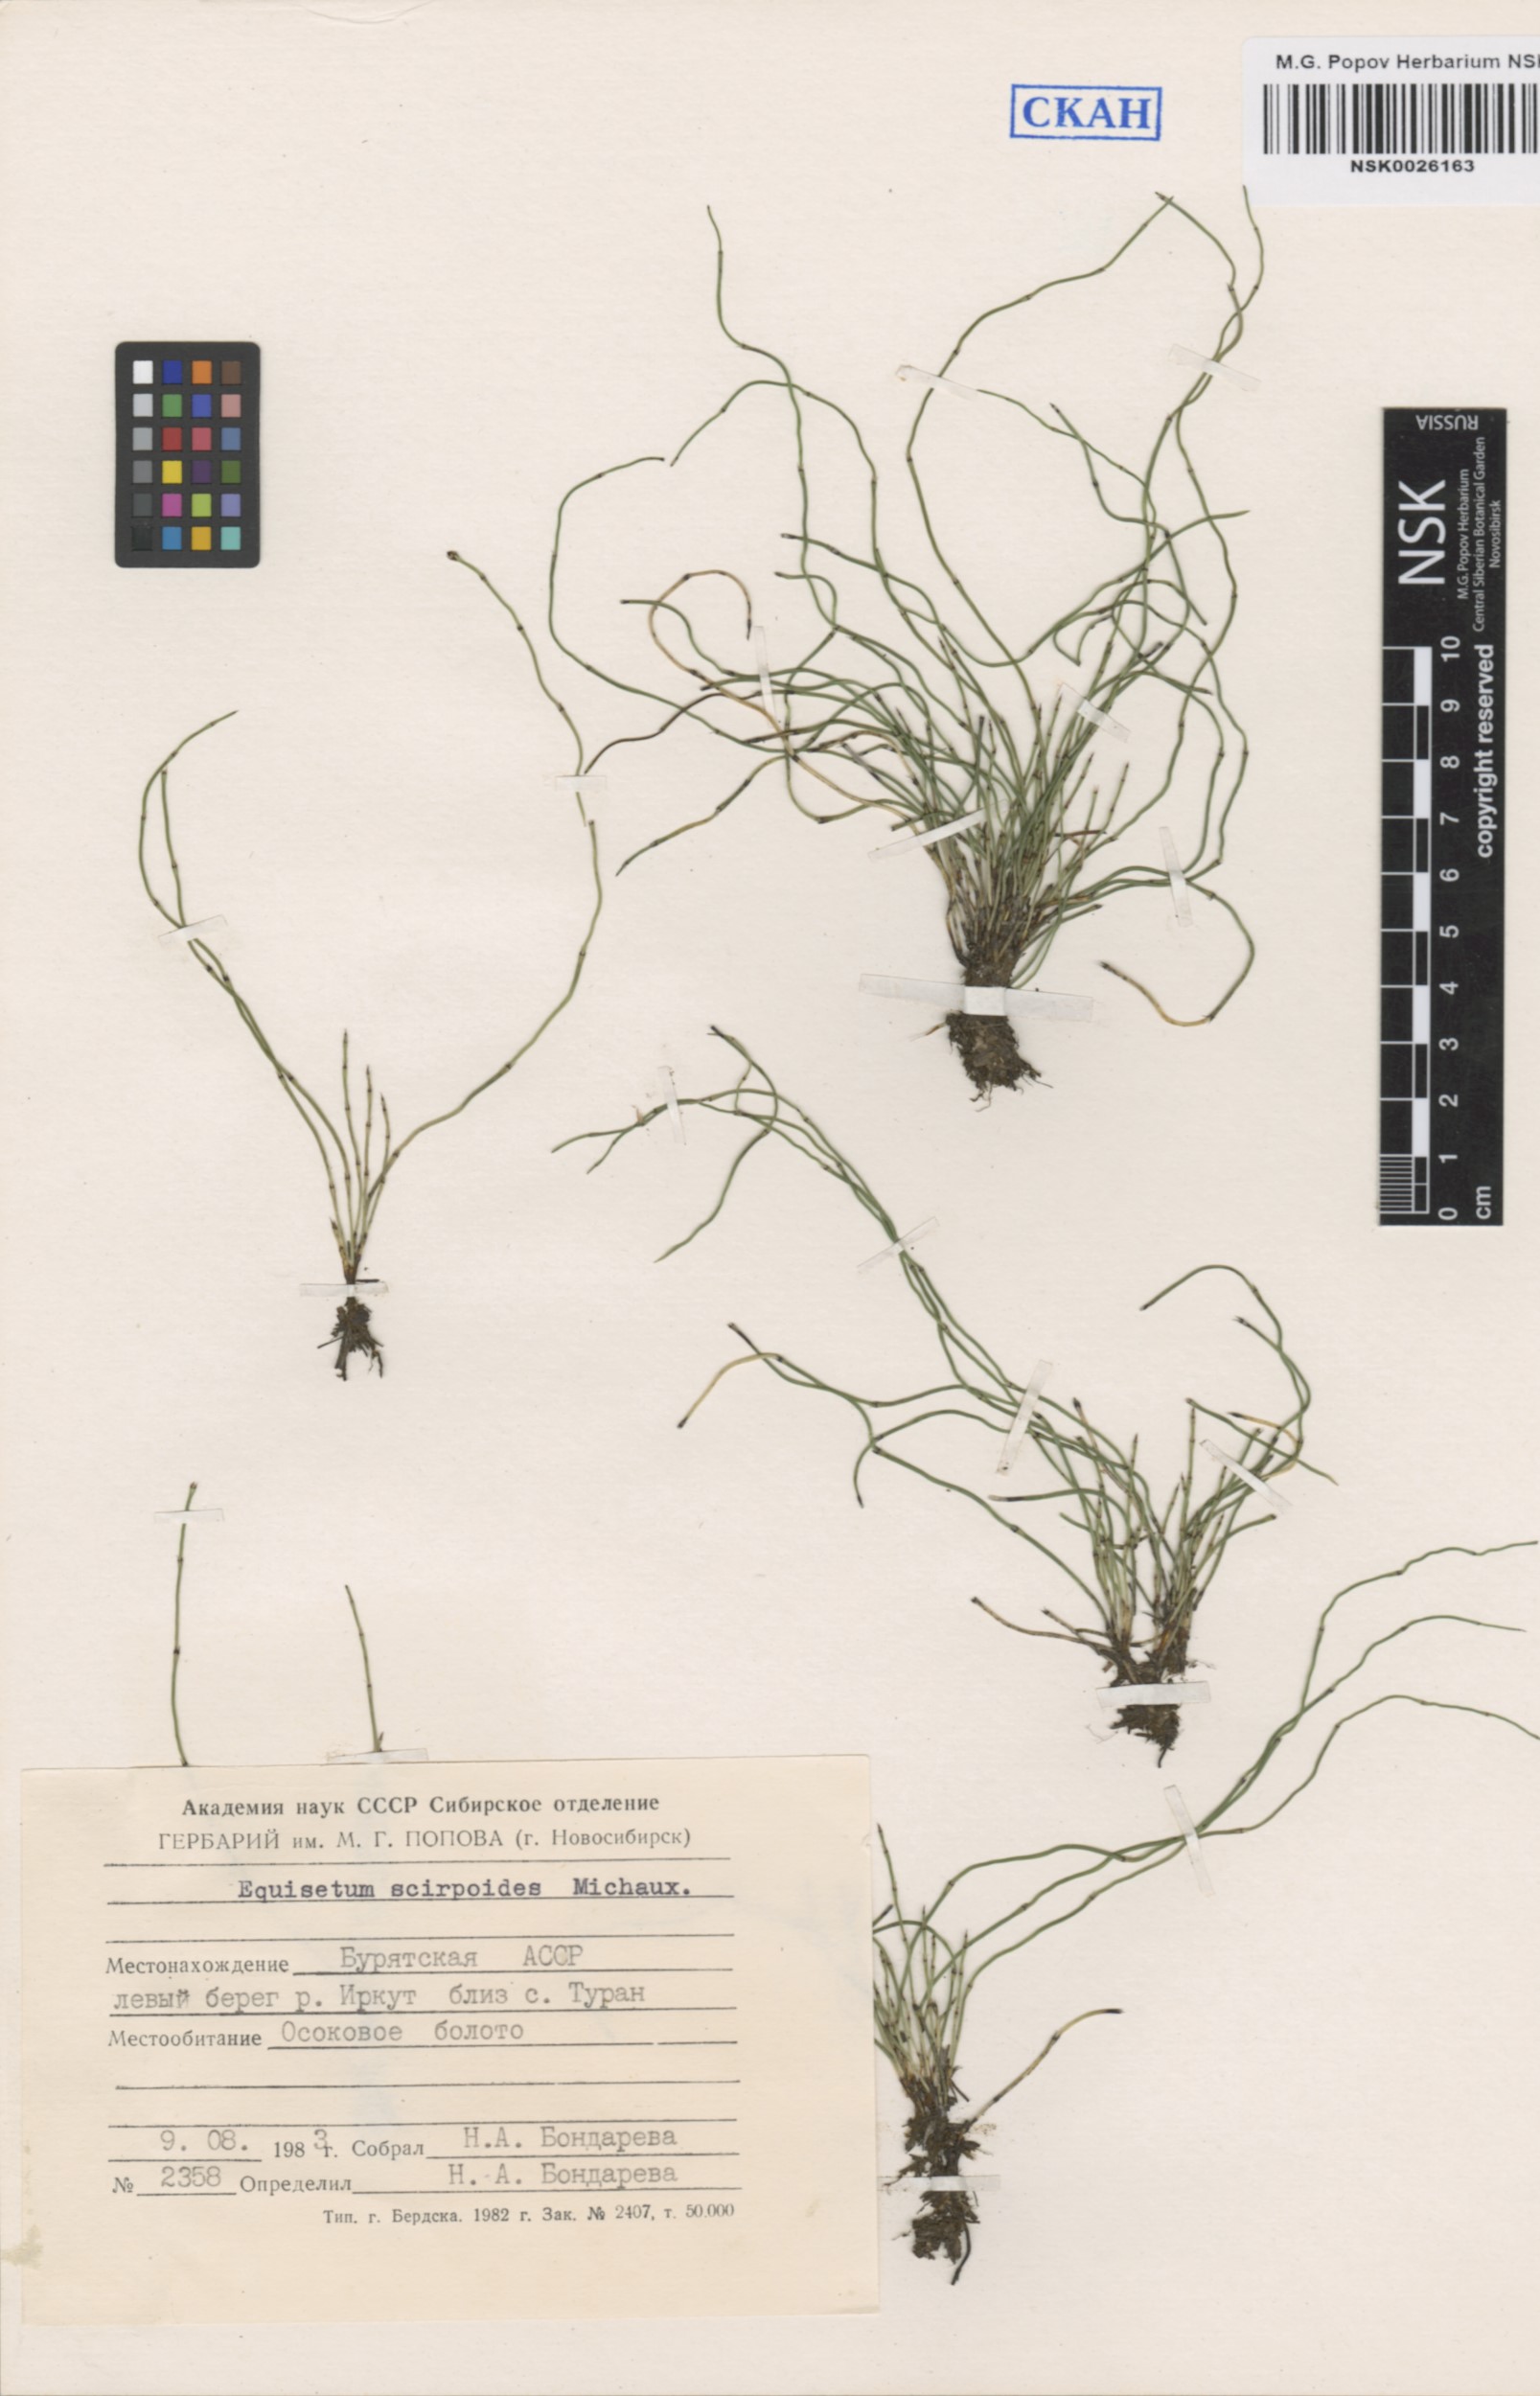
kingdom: Plantae
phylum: Tracheophyta
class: Polypodiopsida
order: Equisetales
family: Equisetaceae
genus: Equisetum
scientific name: Equisetum scirpoides
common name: Delicate horsetail
